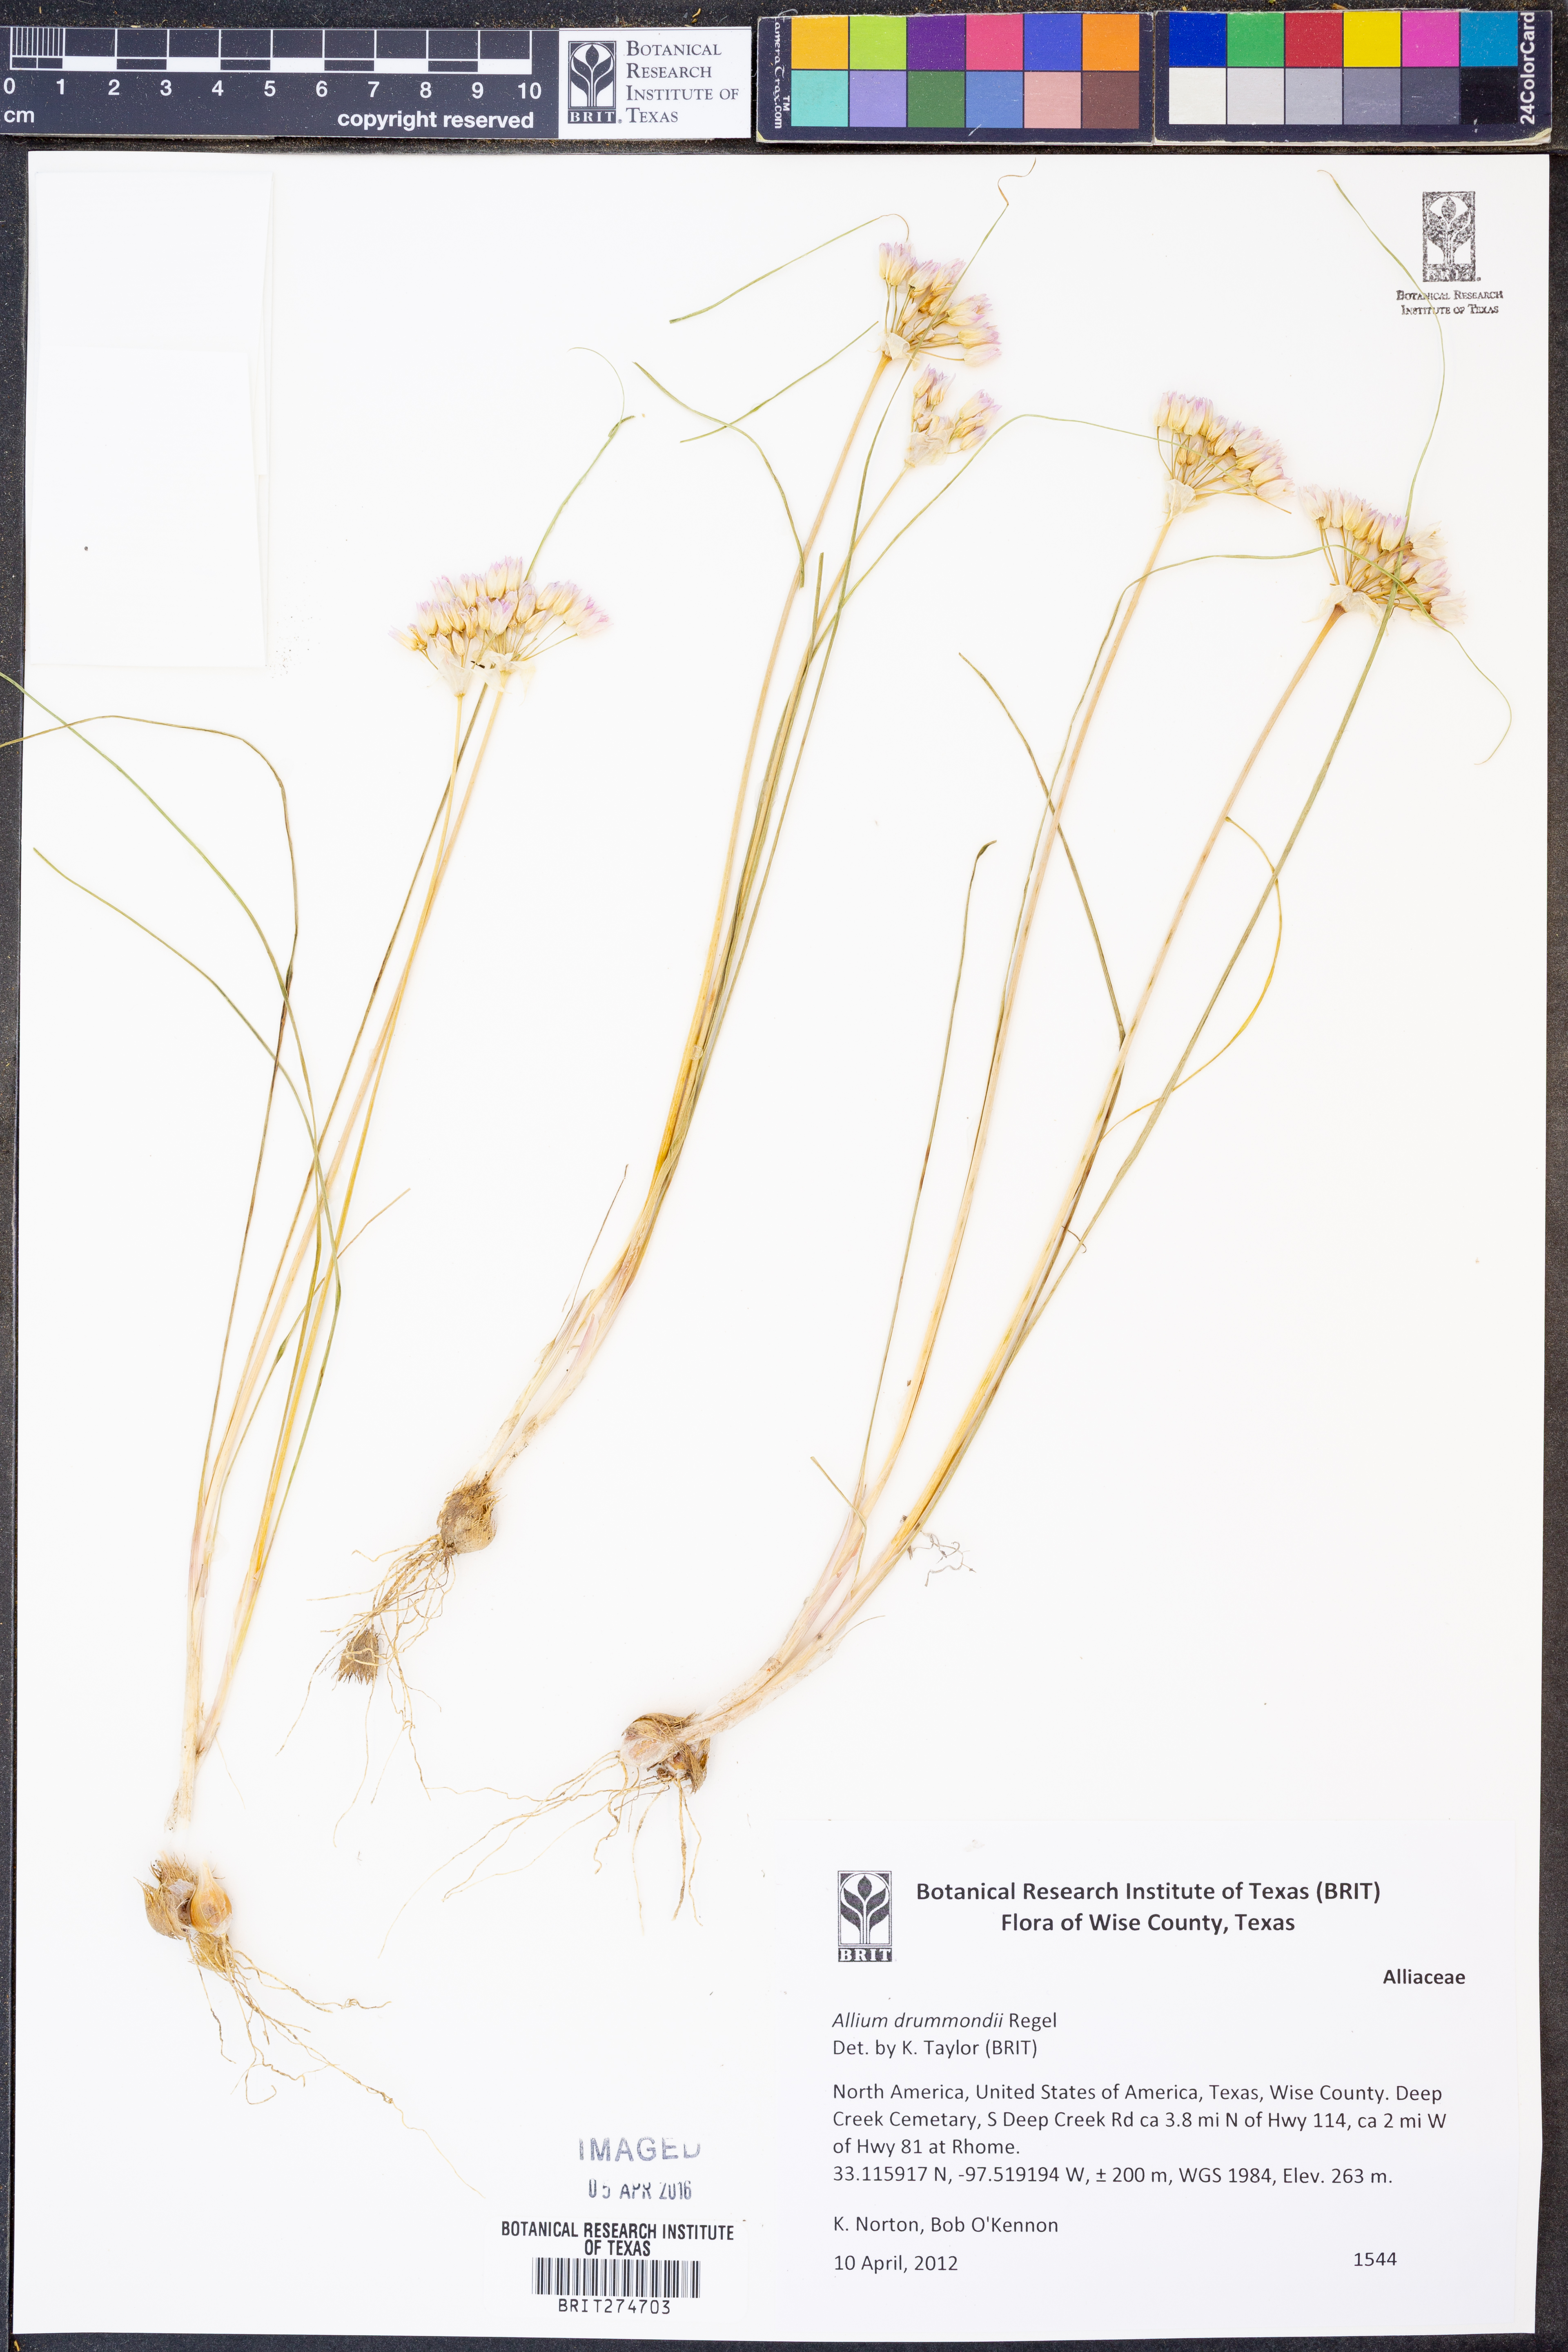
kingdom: Plantae
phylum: Tracheophyta
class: Liliopsida
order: Asparagales
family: Amaryllidaceae
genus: Allium
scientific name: Allium drummondii
